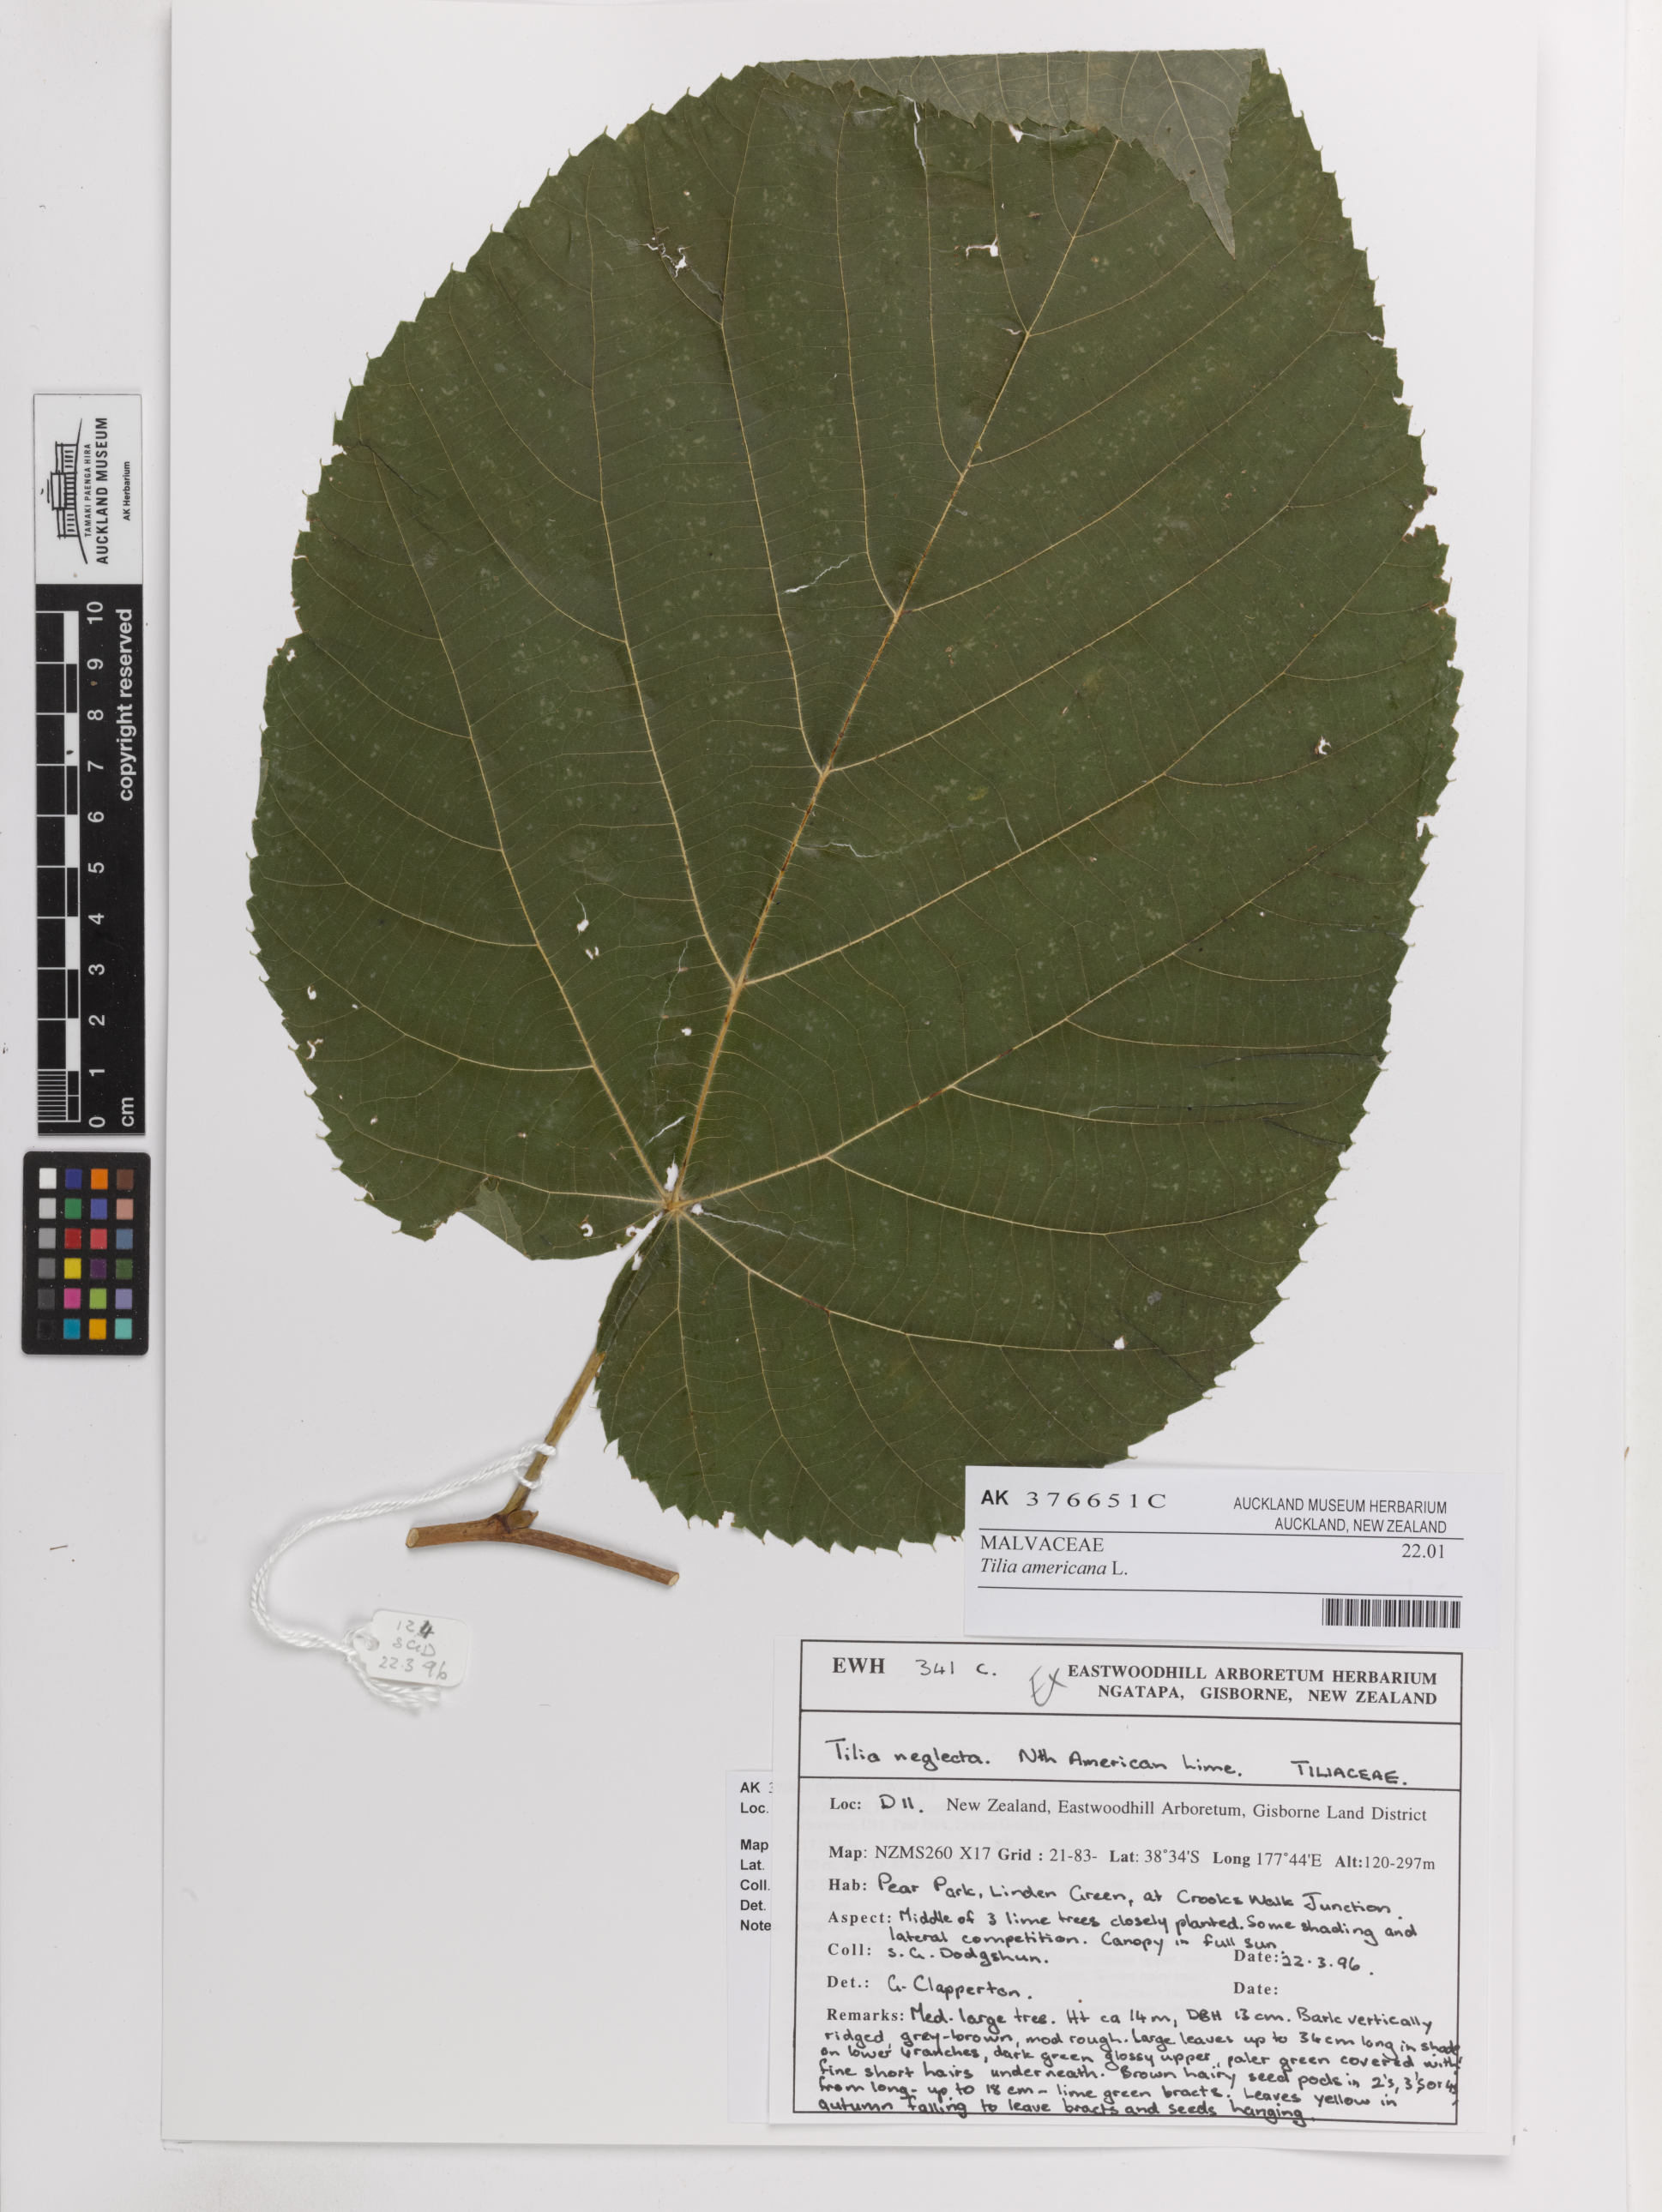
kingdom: Plantae
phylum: Tracheophyta
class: Magnoliopsida
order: Malvales
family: Malvaceae
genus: Tilia
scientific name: Tilia americana
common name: Basswood
